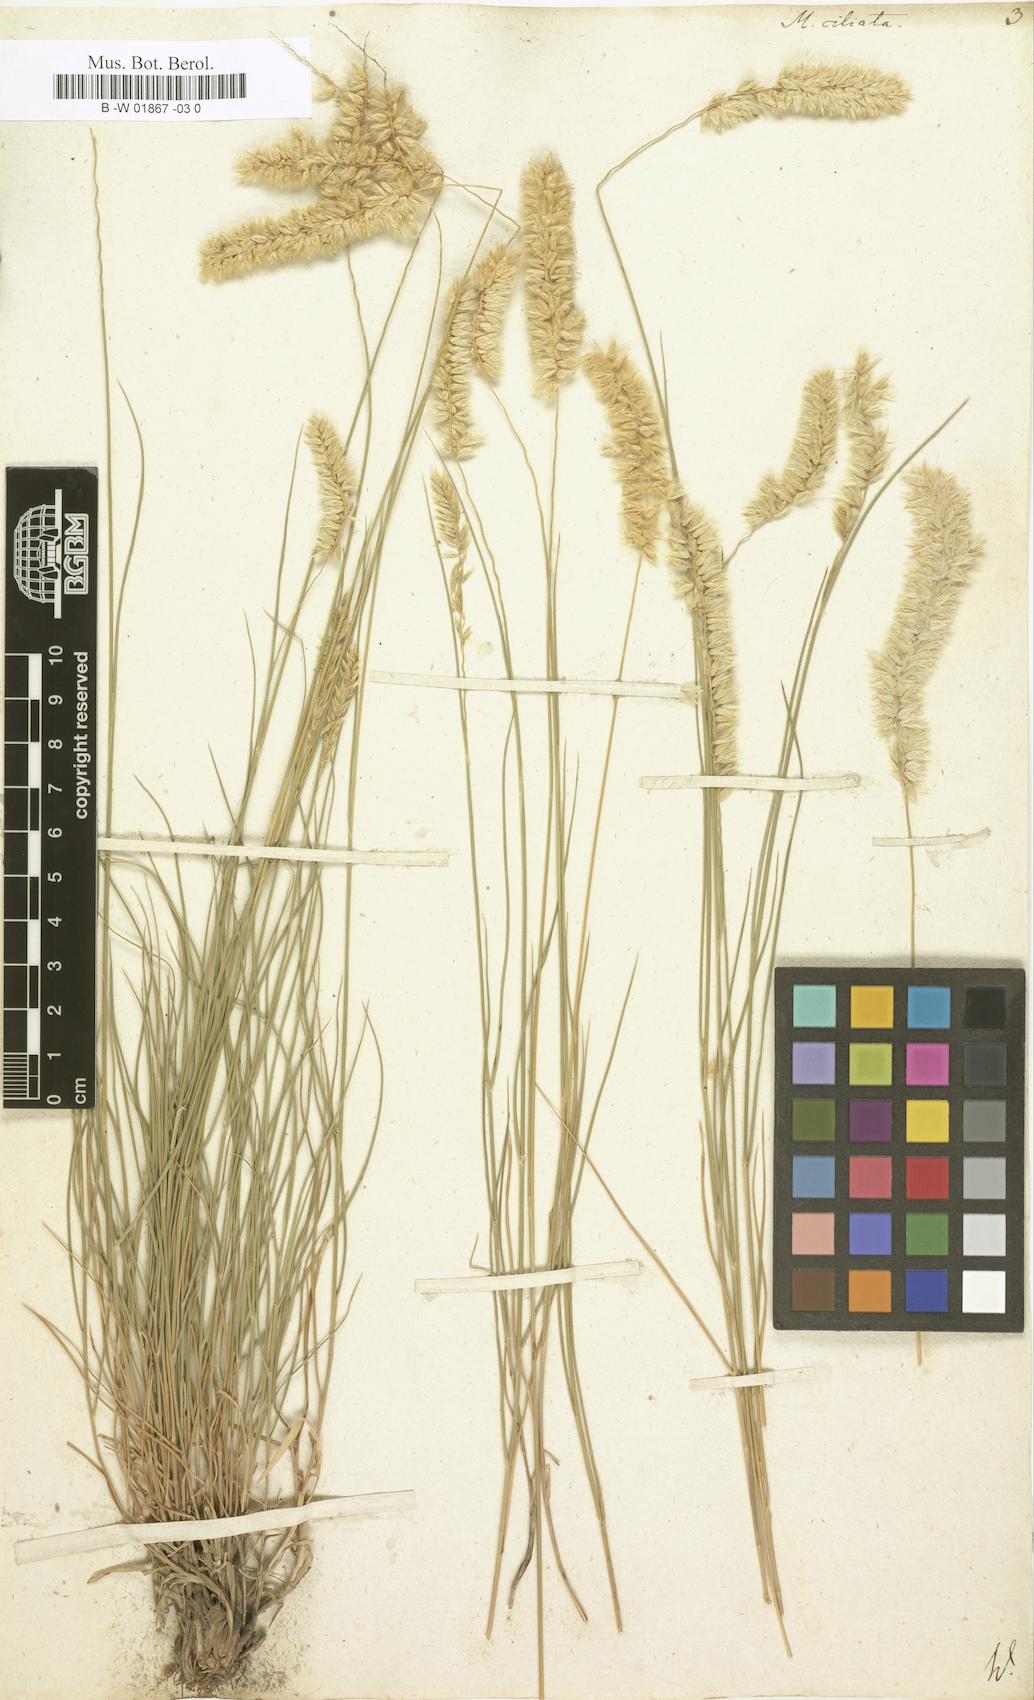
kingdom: Plantae
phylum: Tracheophyta
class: Liliopsida
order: Poales
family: Poaceae
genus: Melica
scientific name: Melica ciliata
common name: Hairy melicgrass
